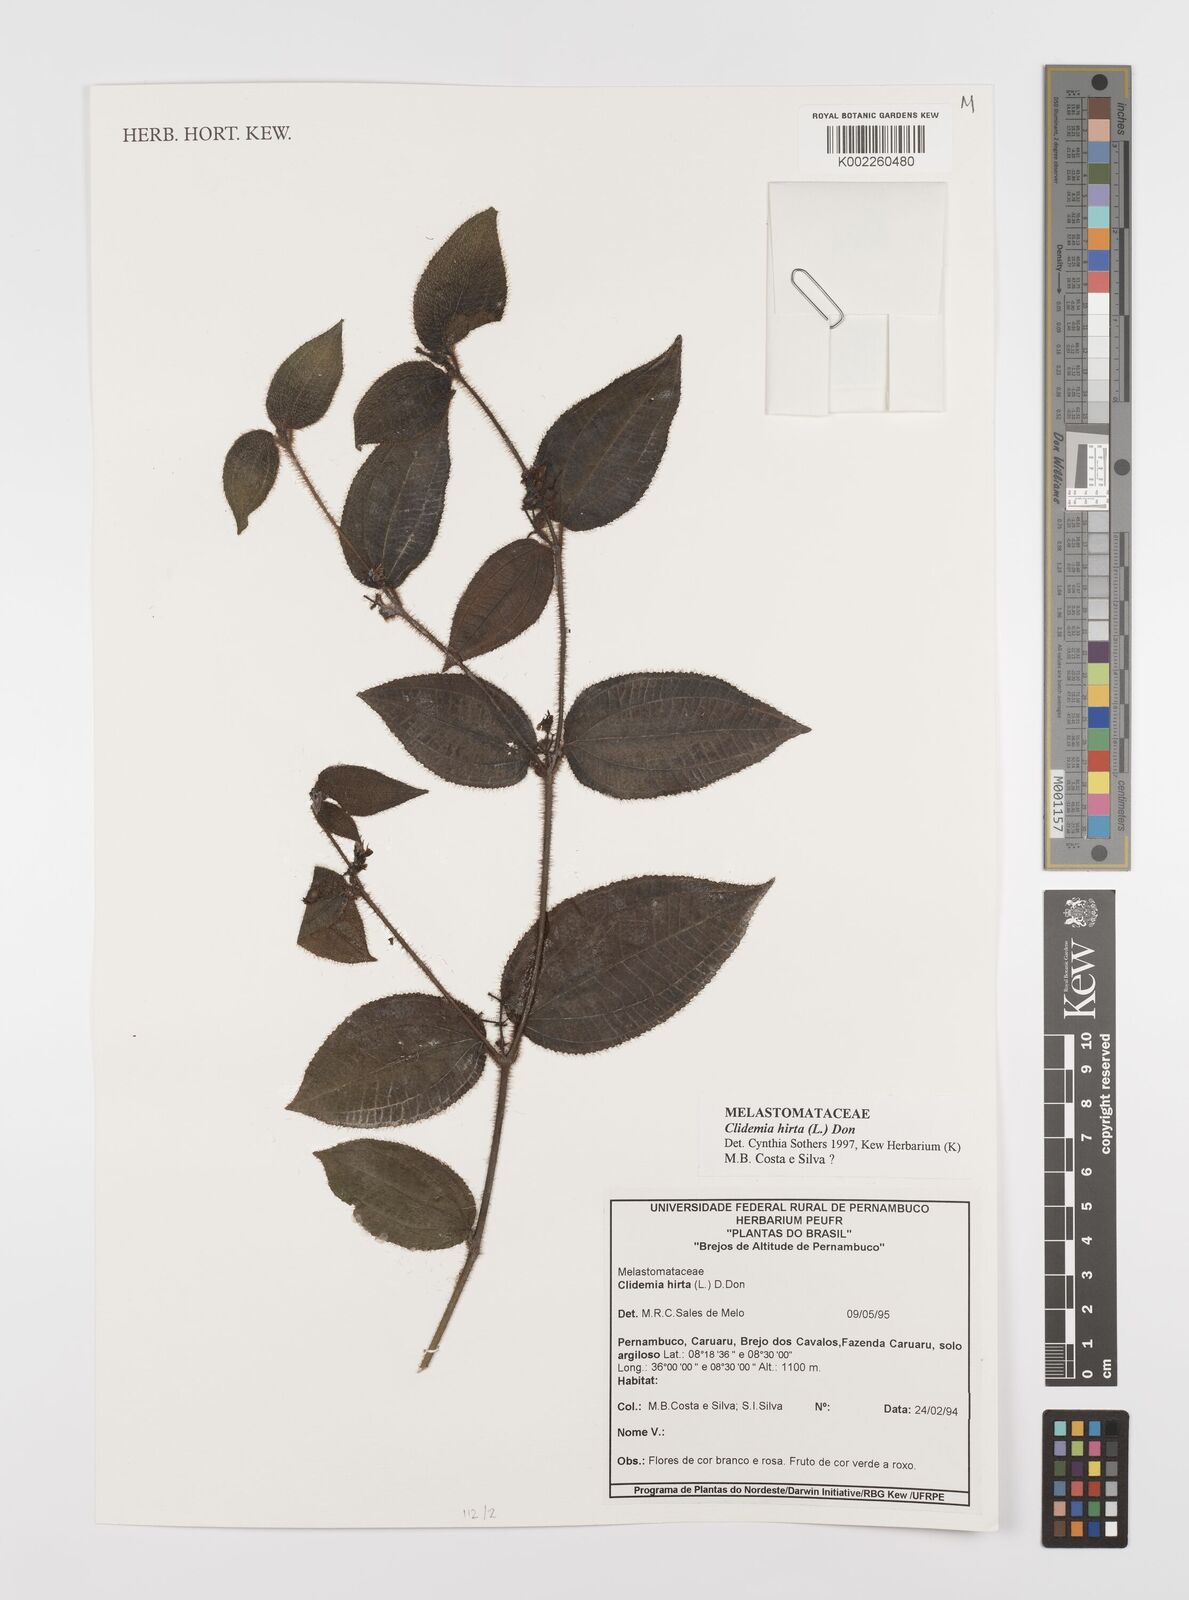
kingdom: Plantae
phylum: Tracheophyta
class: Magnoliopsida
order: Myrtales
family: Melastomataceae
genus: Miconia
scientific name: Miconia crenata
